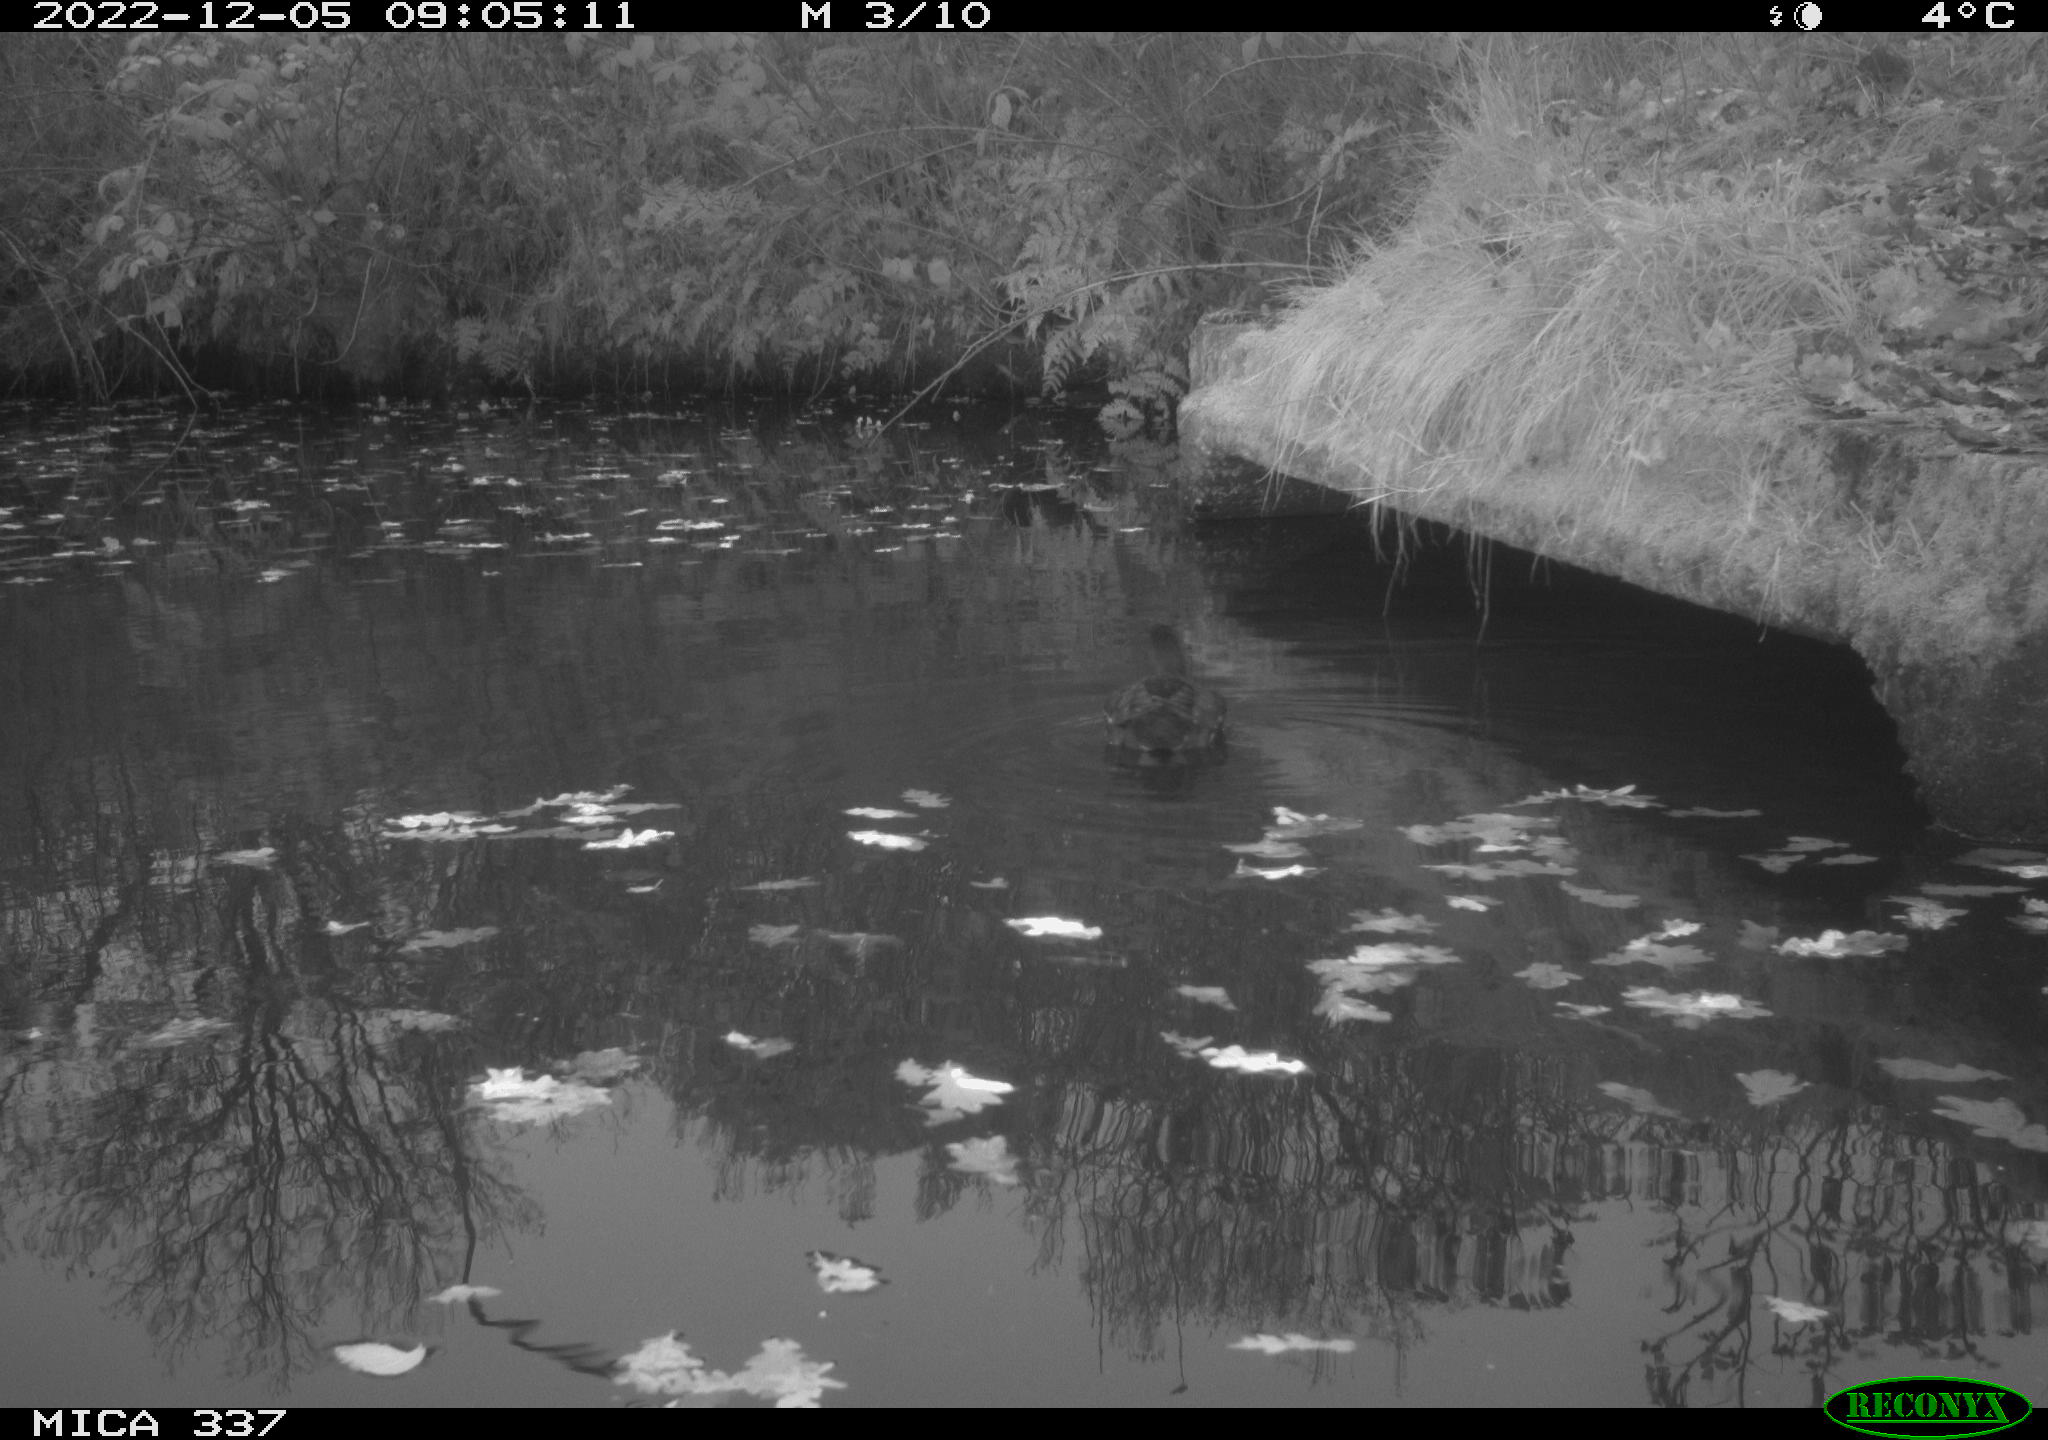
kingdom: Animalia
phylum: Chordata
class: Aves
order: Gruiformes
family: Rallidae
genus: Gallinula
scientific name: Gallinula chloropus
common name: Common moorhen
